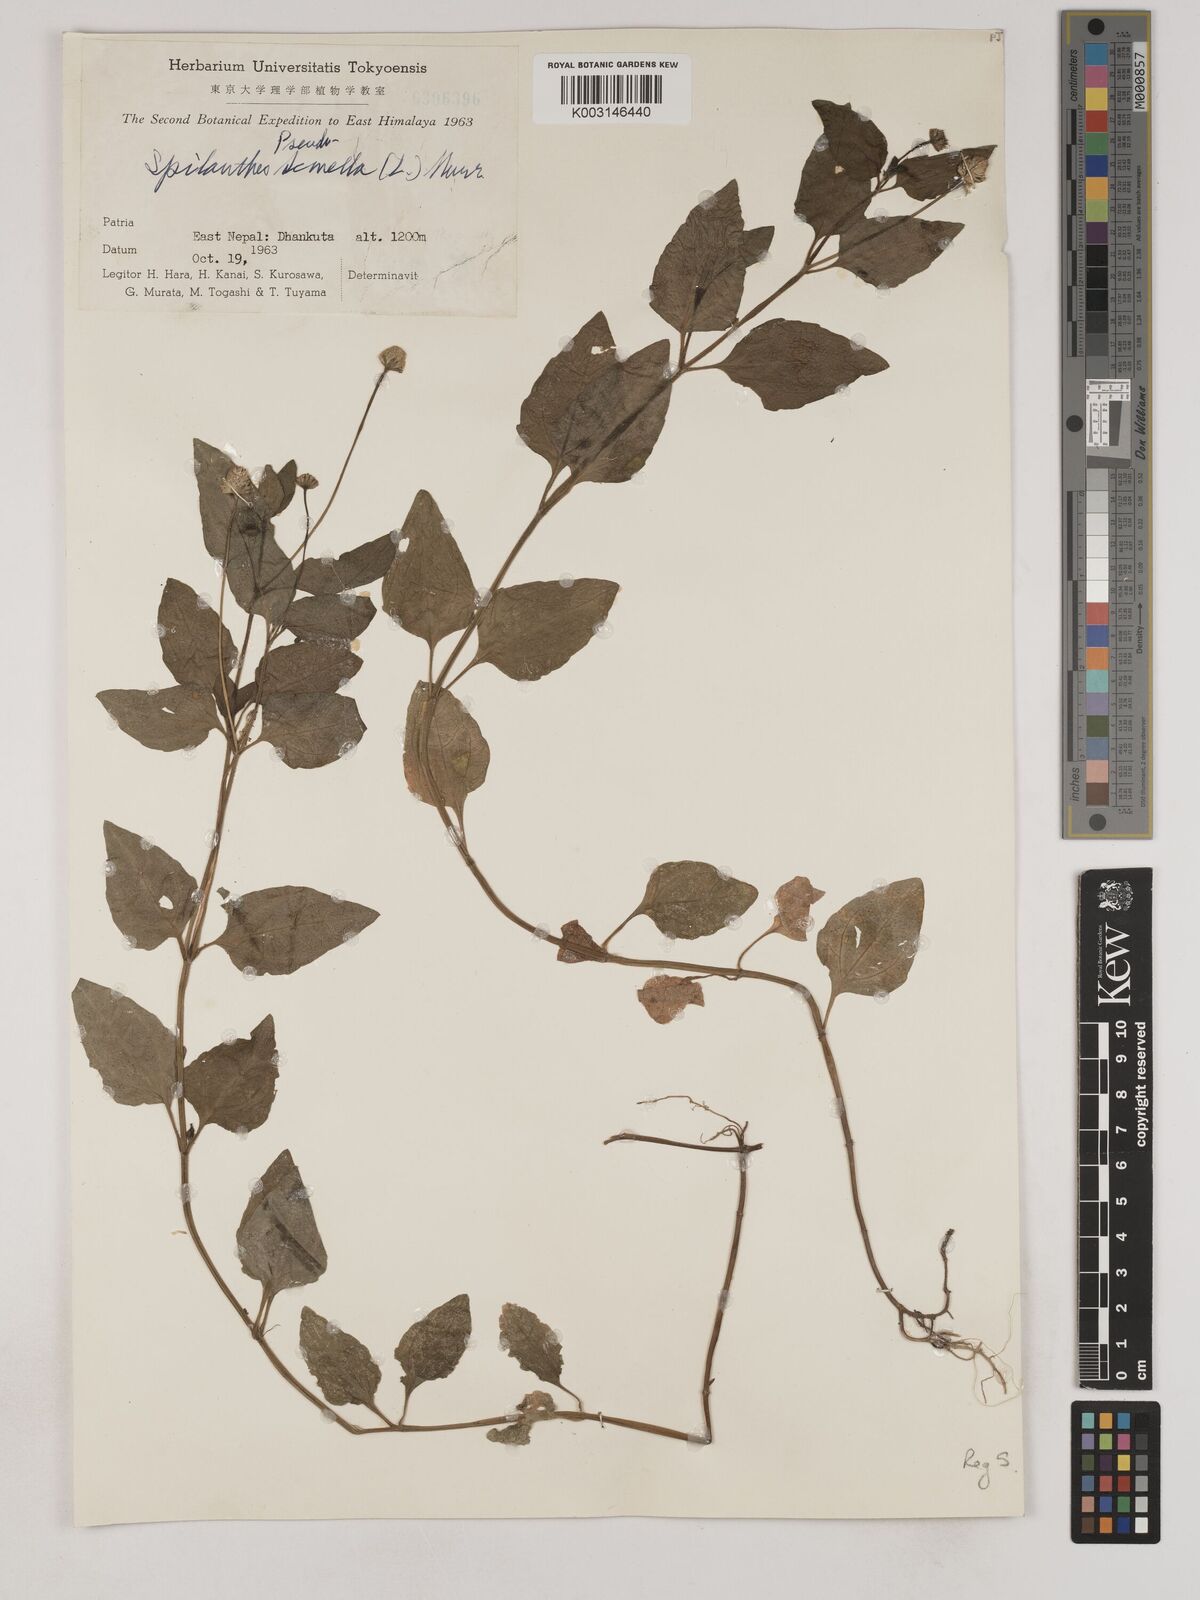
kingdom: Plantae
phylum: Tracheophyta
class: Magnoliopsida
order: Asterales
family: Asteraceae
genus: Acmella
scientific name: Acmella oleracea
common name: Brazilian cress
